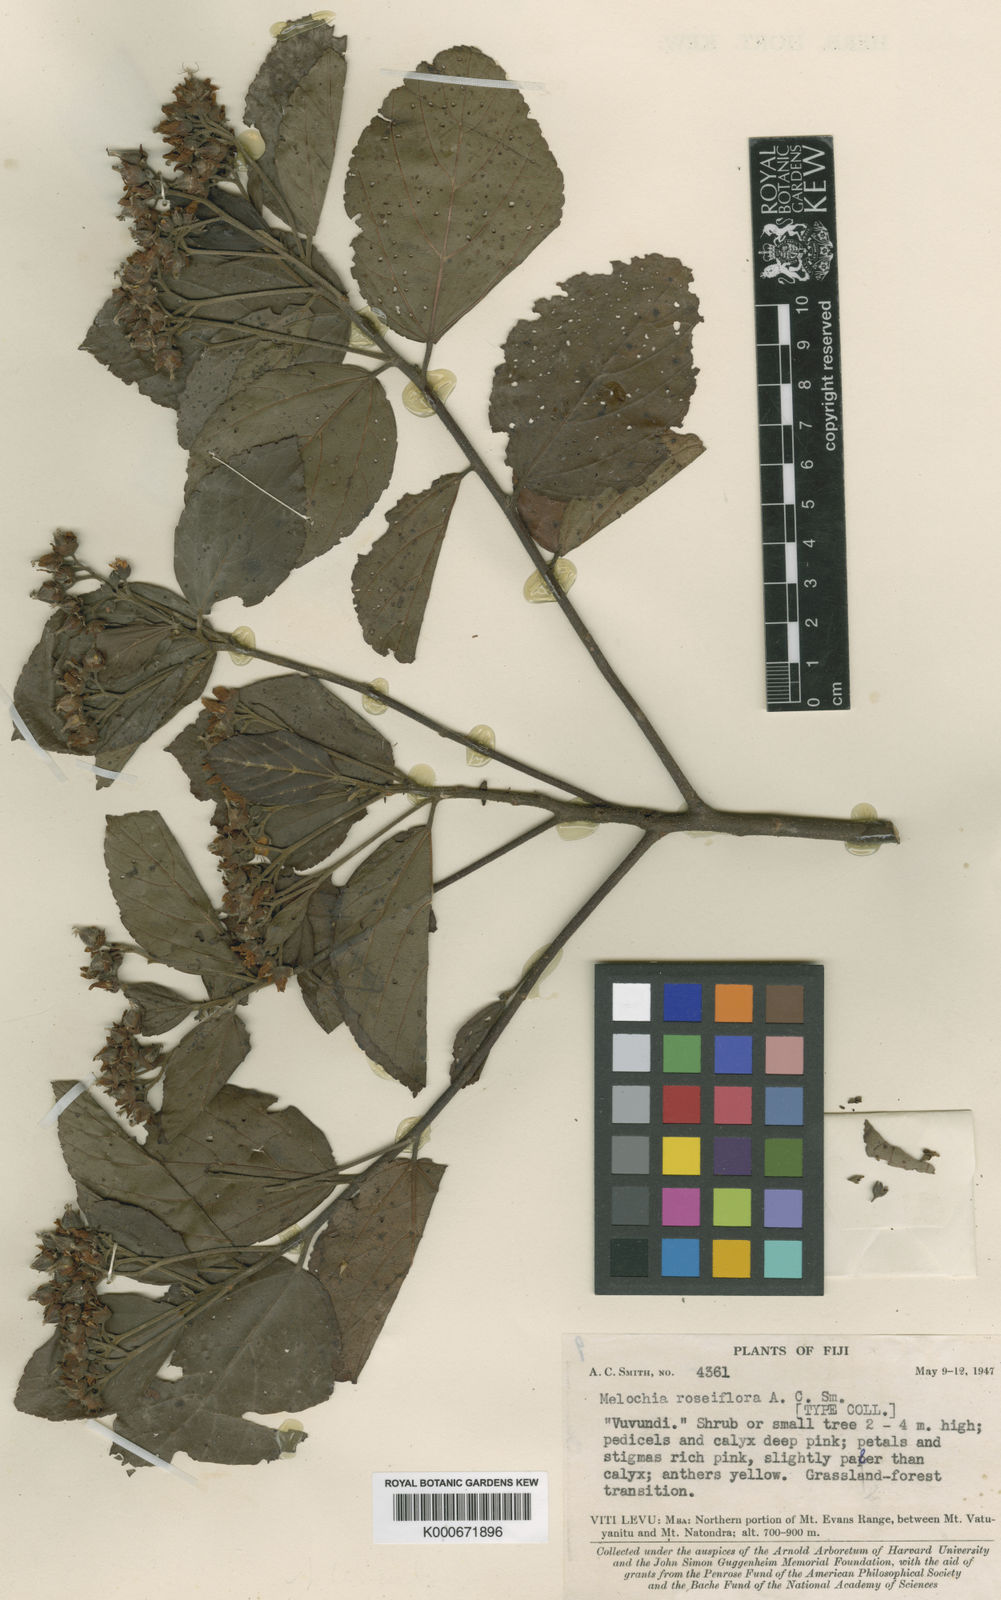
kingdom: Plantae
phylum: Tracheophyta
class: Magnoliopsida
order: Malvales
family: Malvaceae
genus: Melochia
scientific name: Melochia roseiflora
